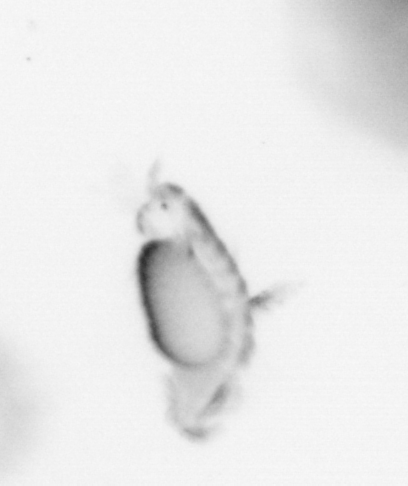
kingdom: Animalia
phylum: Annelida
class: Polychaeta
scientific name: Polychaeta
